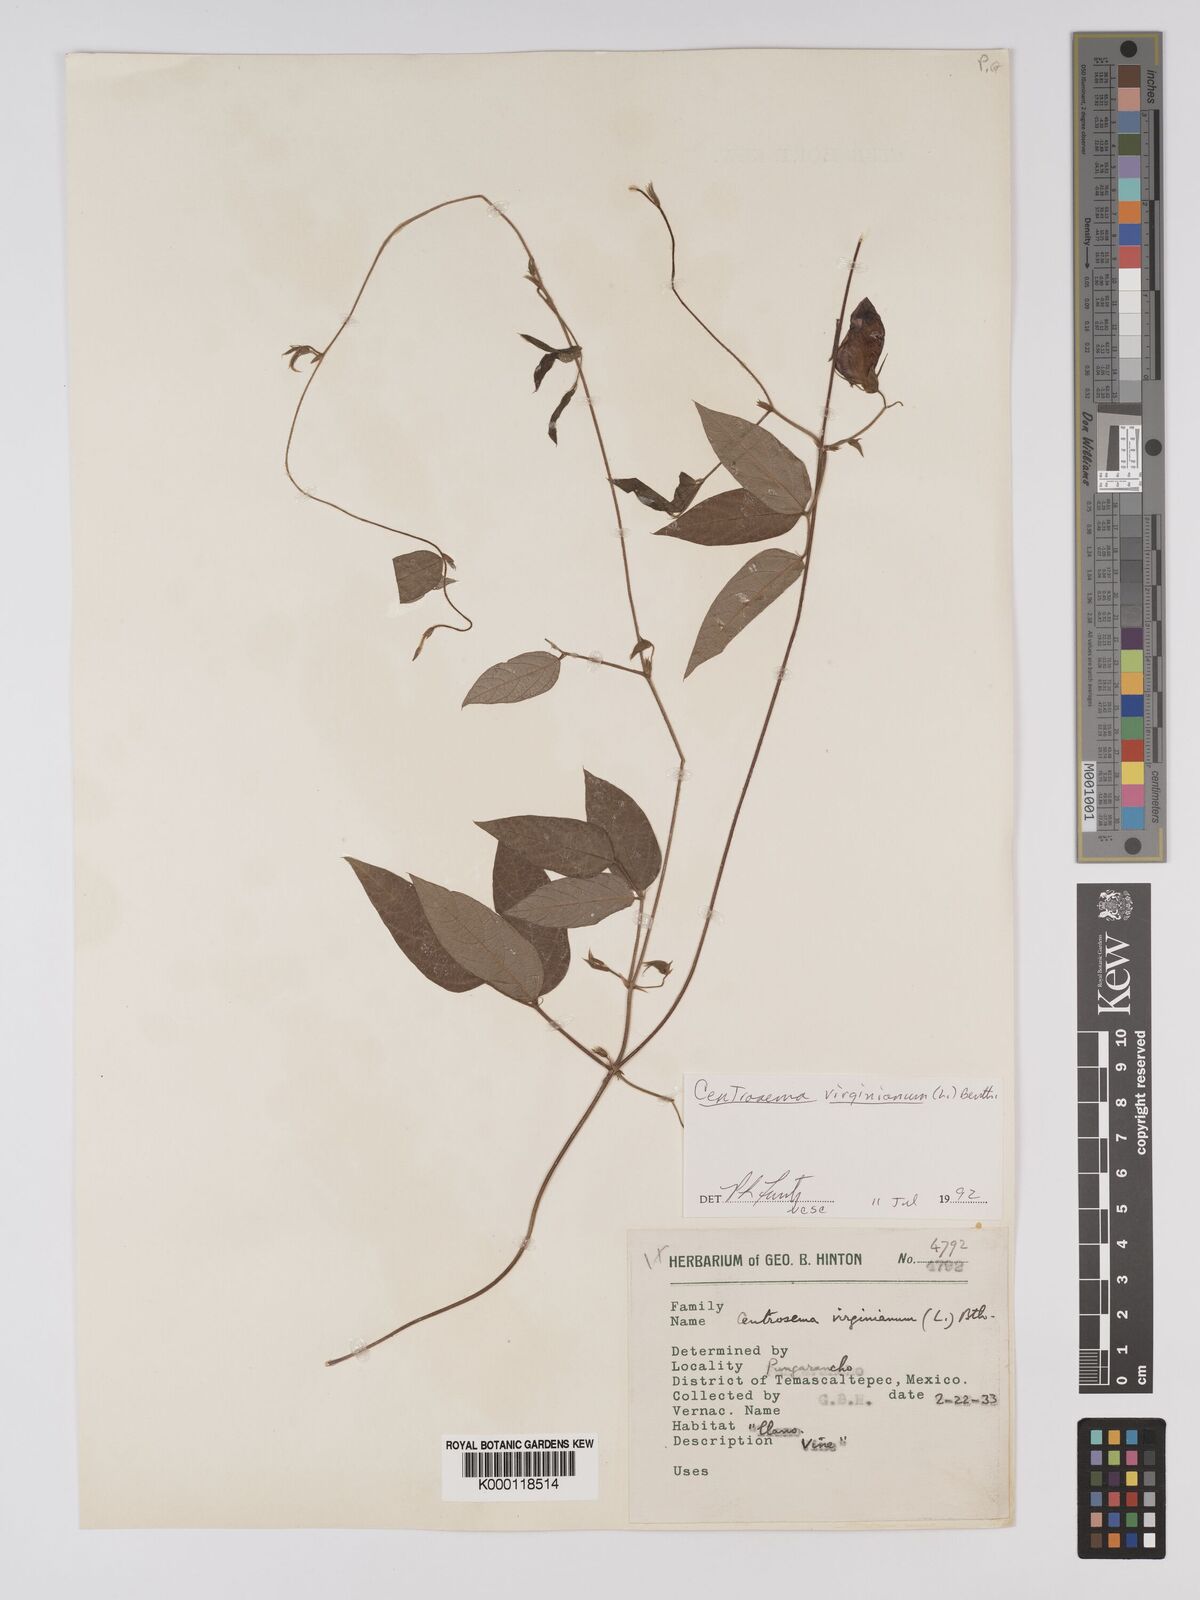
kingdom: Plantae
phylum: Tracheophyta
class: Magnoliopsida
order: Fabales
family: Fabaceae
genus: Centrosema
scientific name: Centrosema virginianum
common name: Butterfly-pea
